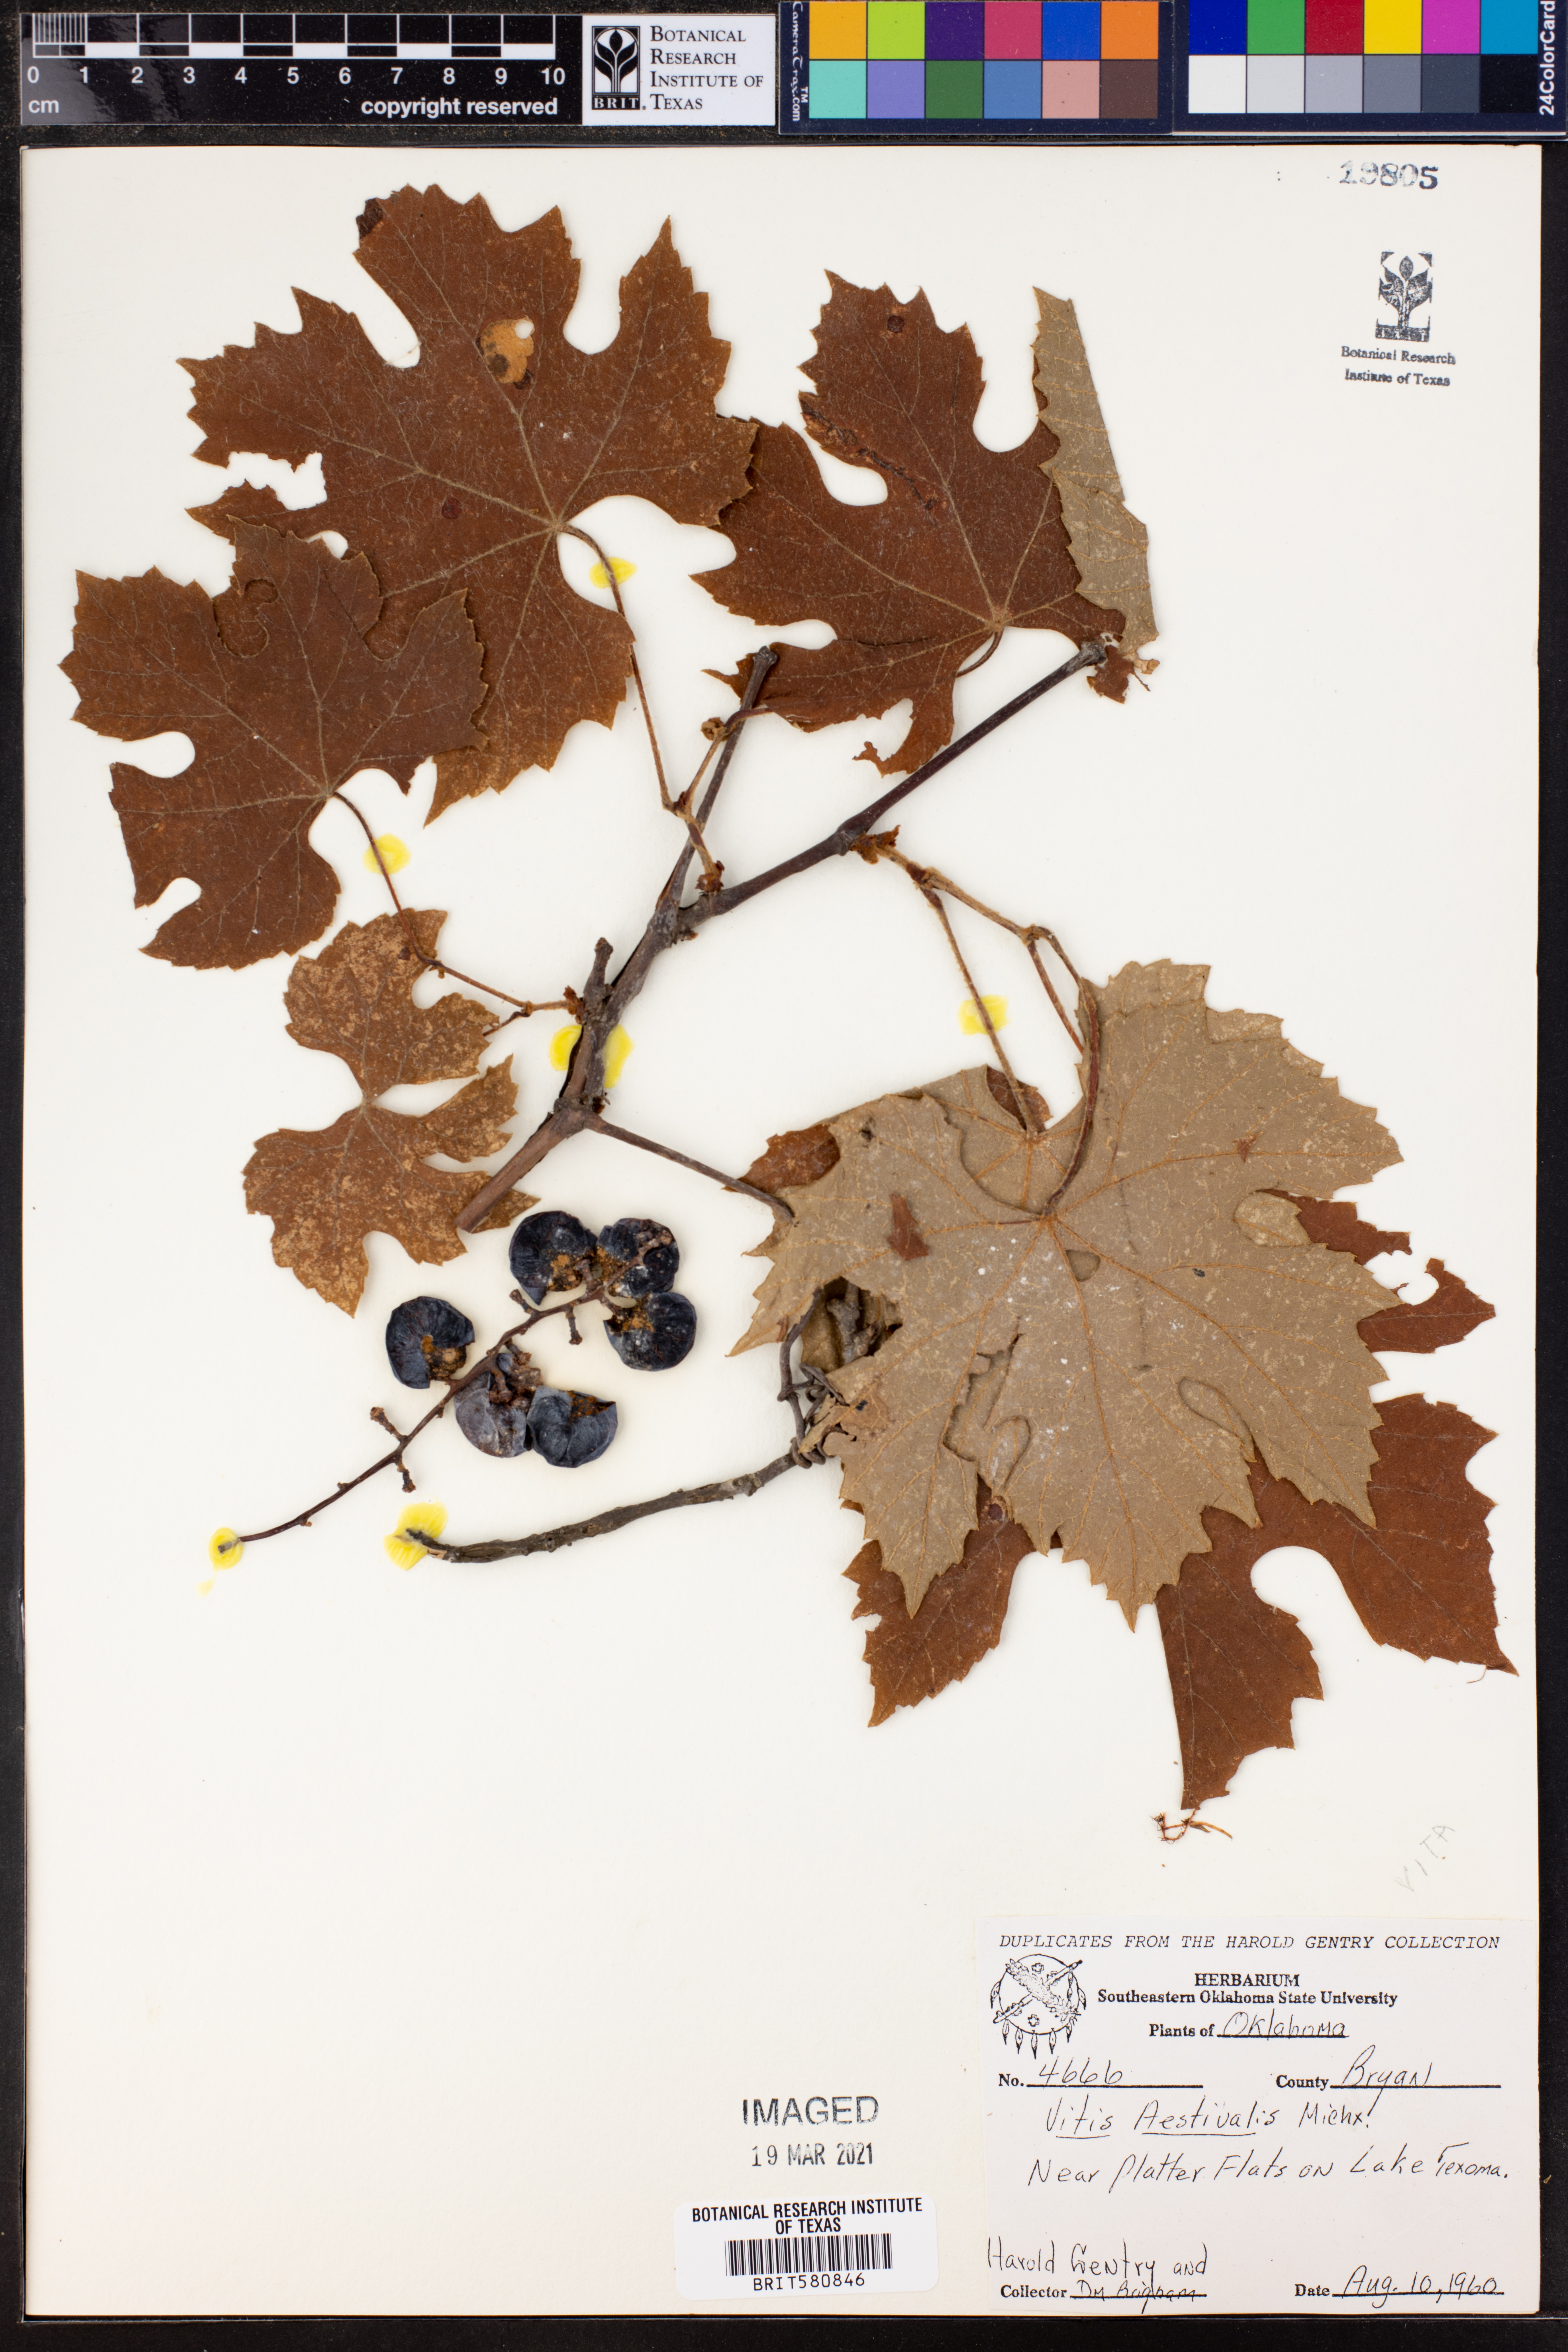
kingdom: Plantae
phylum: Tracheophyta
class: Magnoliopsida
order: Vitales
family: Vitaceae
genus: Vitis
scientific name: Vitis aestivalis
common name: Pigeon grape
